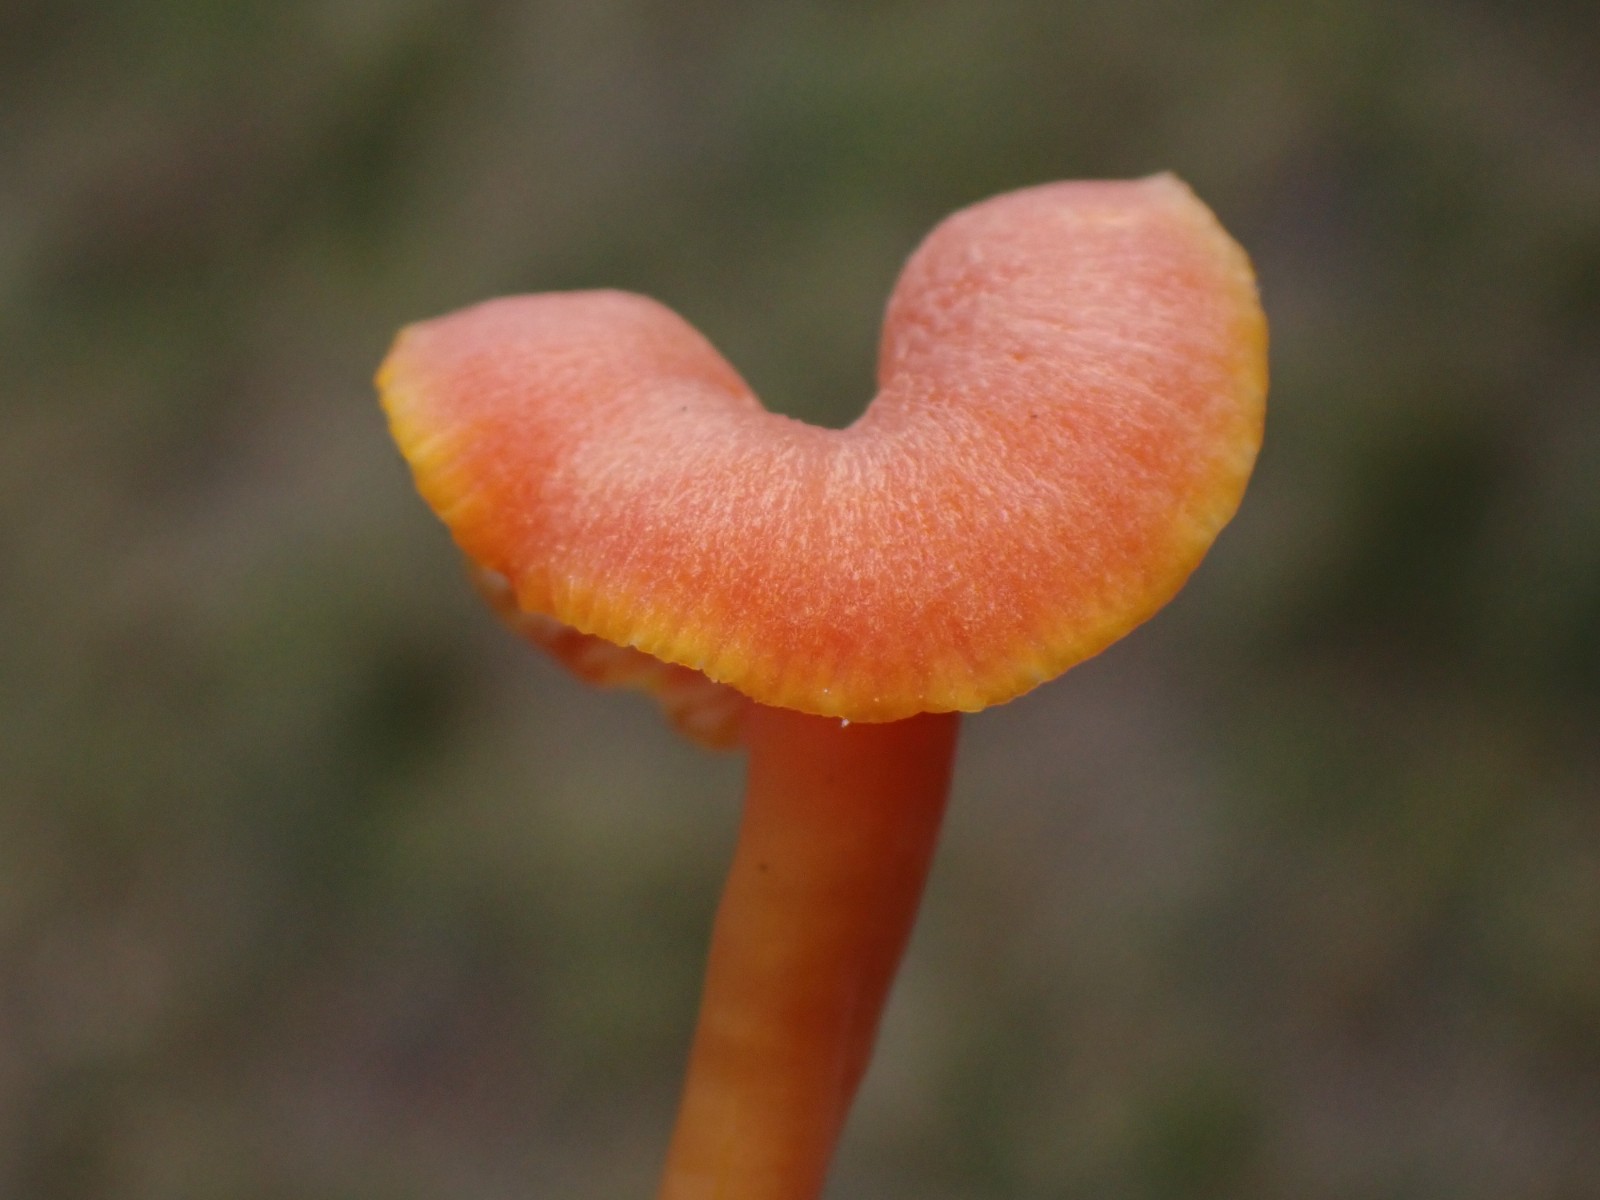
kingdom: Fungi
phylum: Basidiomycota
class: Agaricomycetes
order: Agaricales
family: Hygrophoraceae
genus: Hygrocybe
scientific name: Hygrocybe miniata
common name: mønje-vokshat
